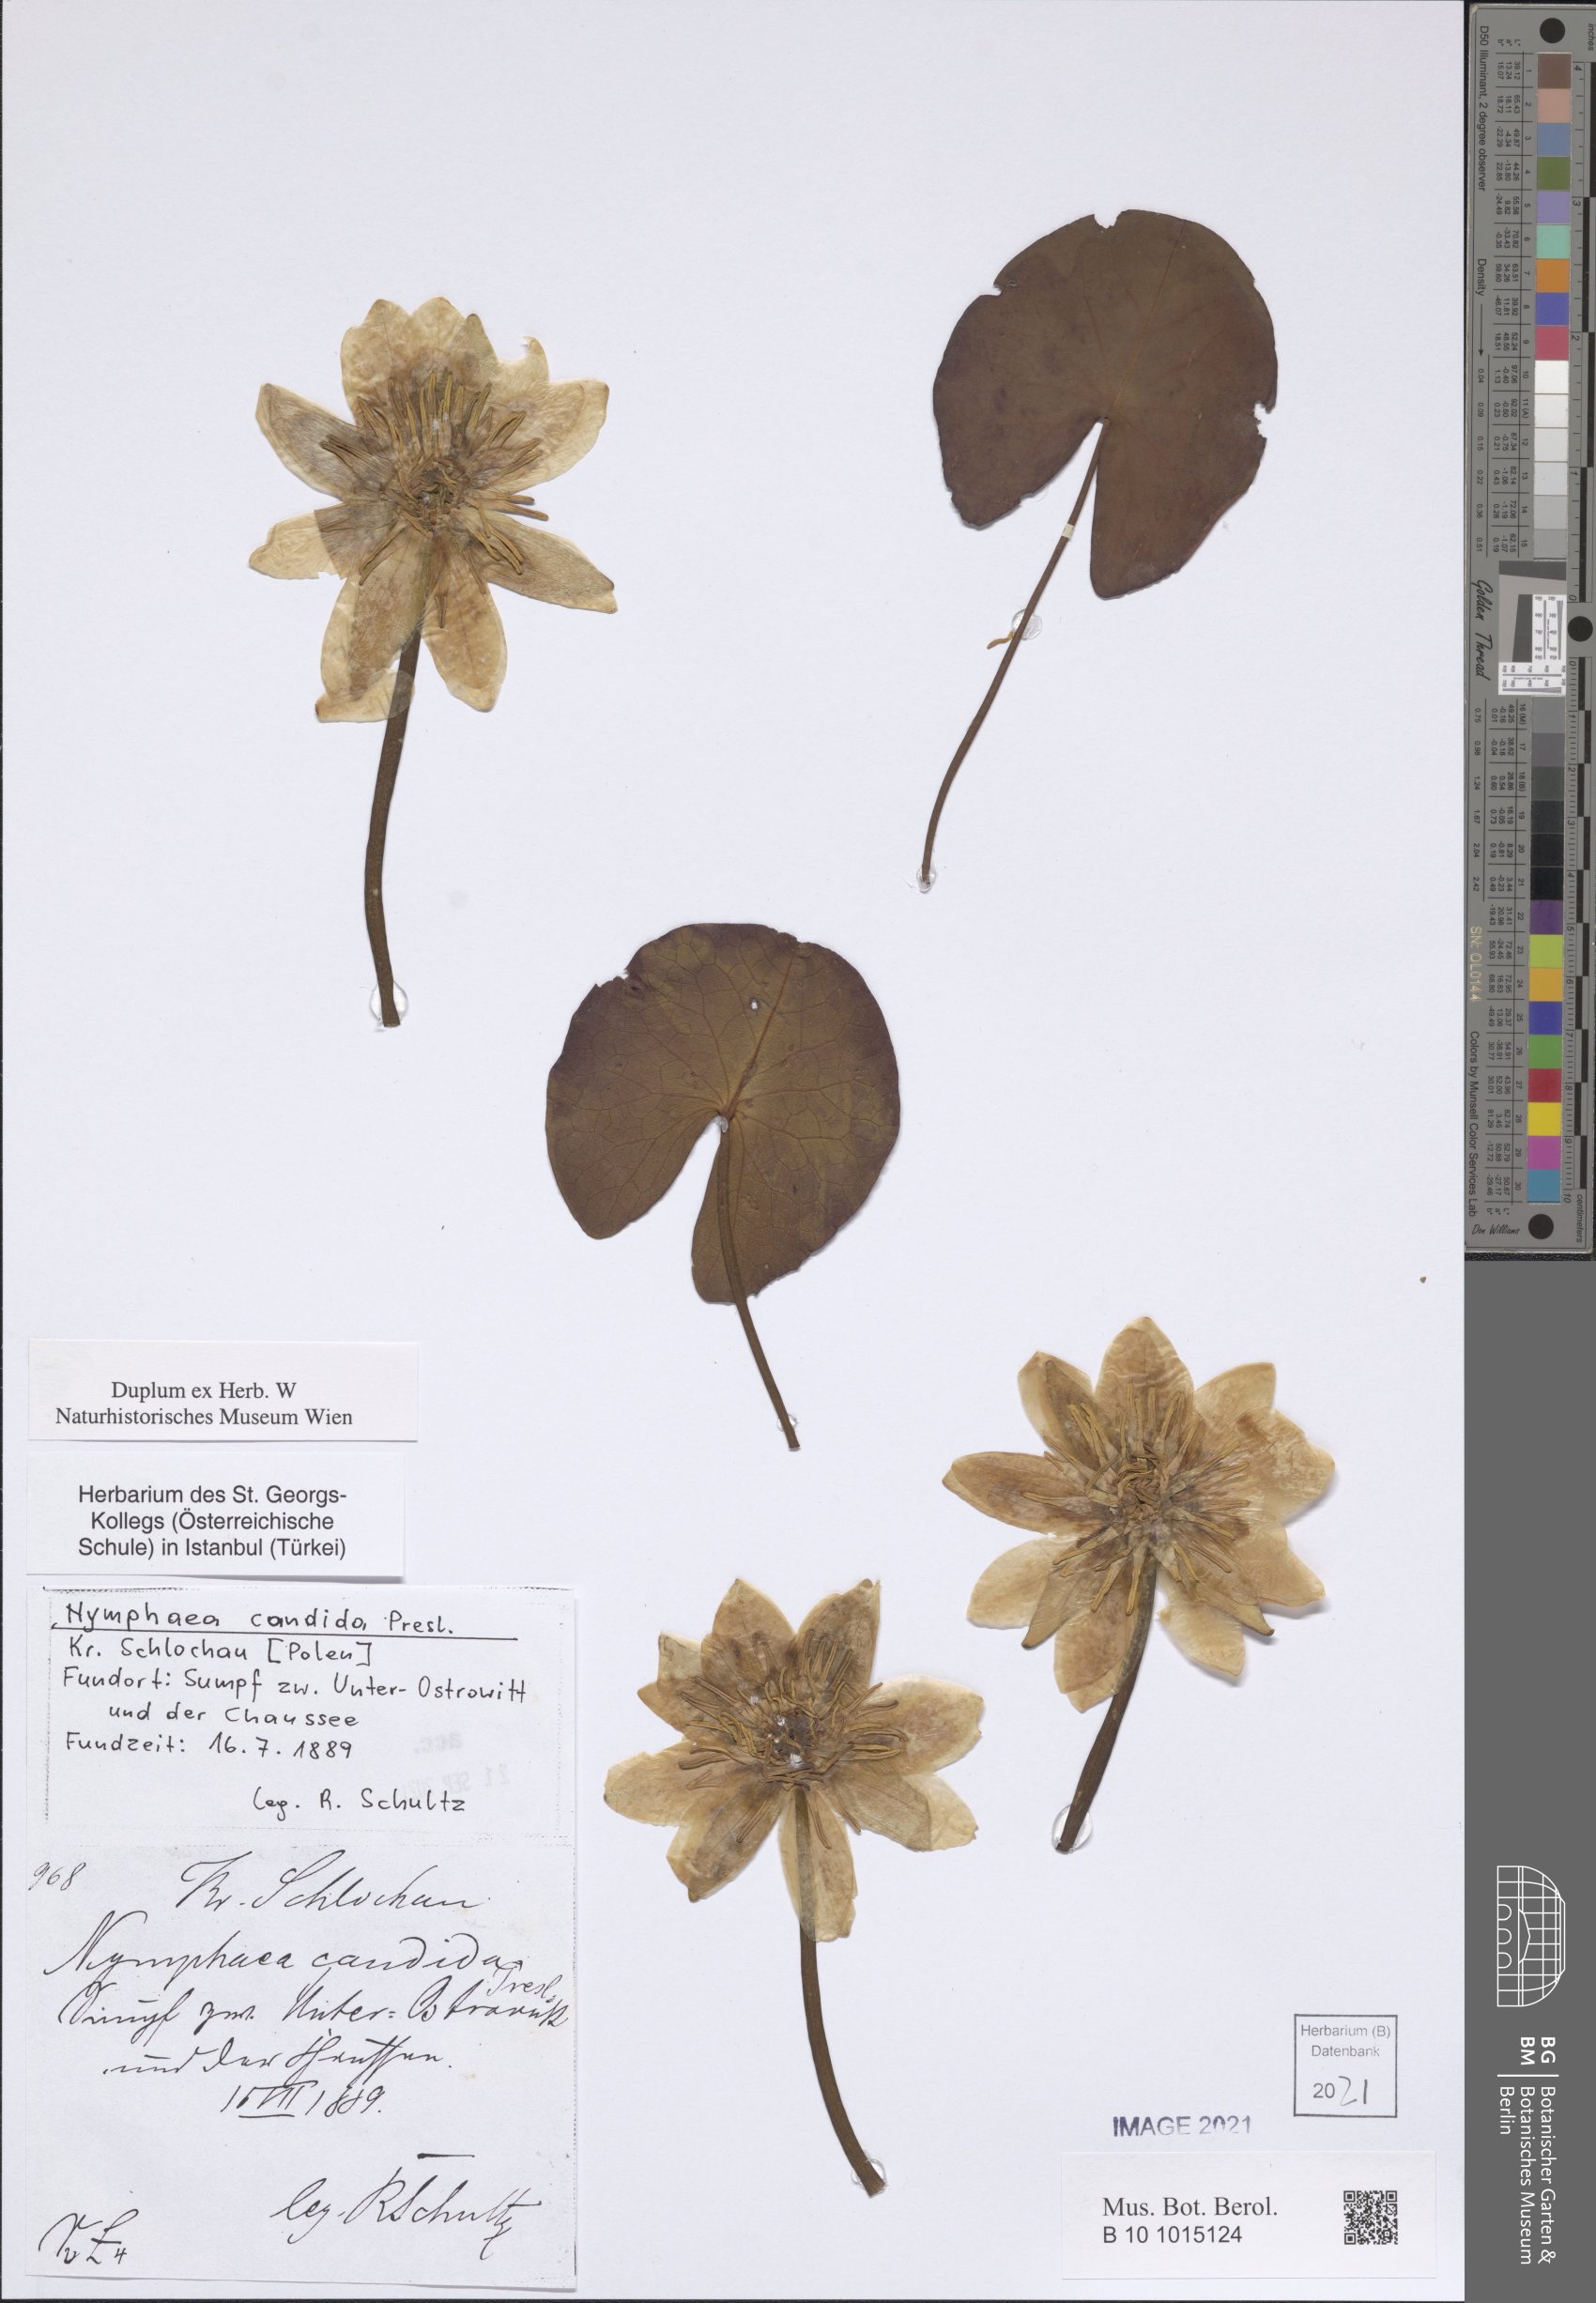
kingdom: Plantae
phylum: Tracheophyta
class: Magnoliopsida
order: Nymphaeales
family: Nymphaeaceae
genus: Nymphaea
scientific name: Nymphaea candida
